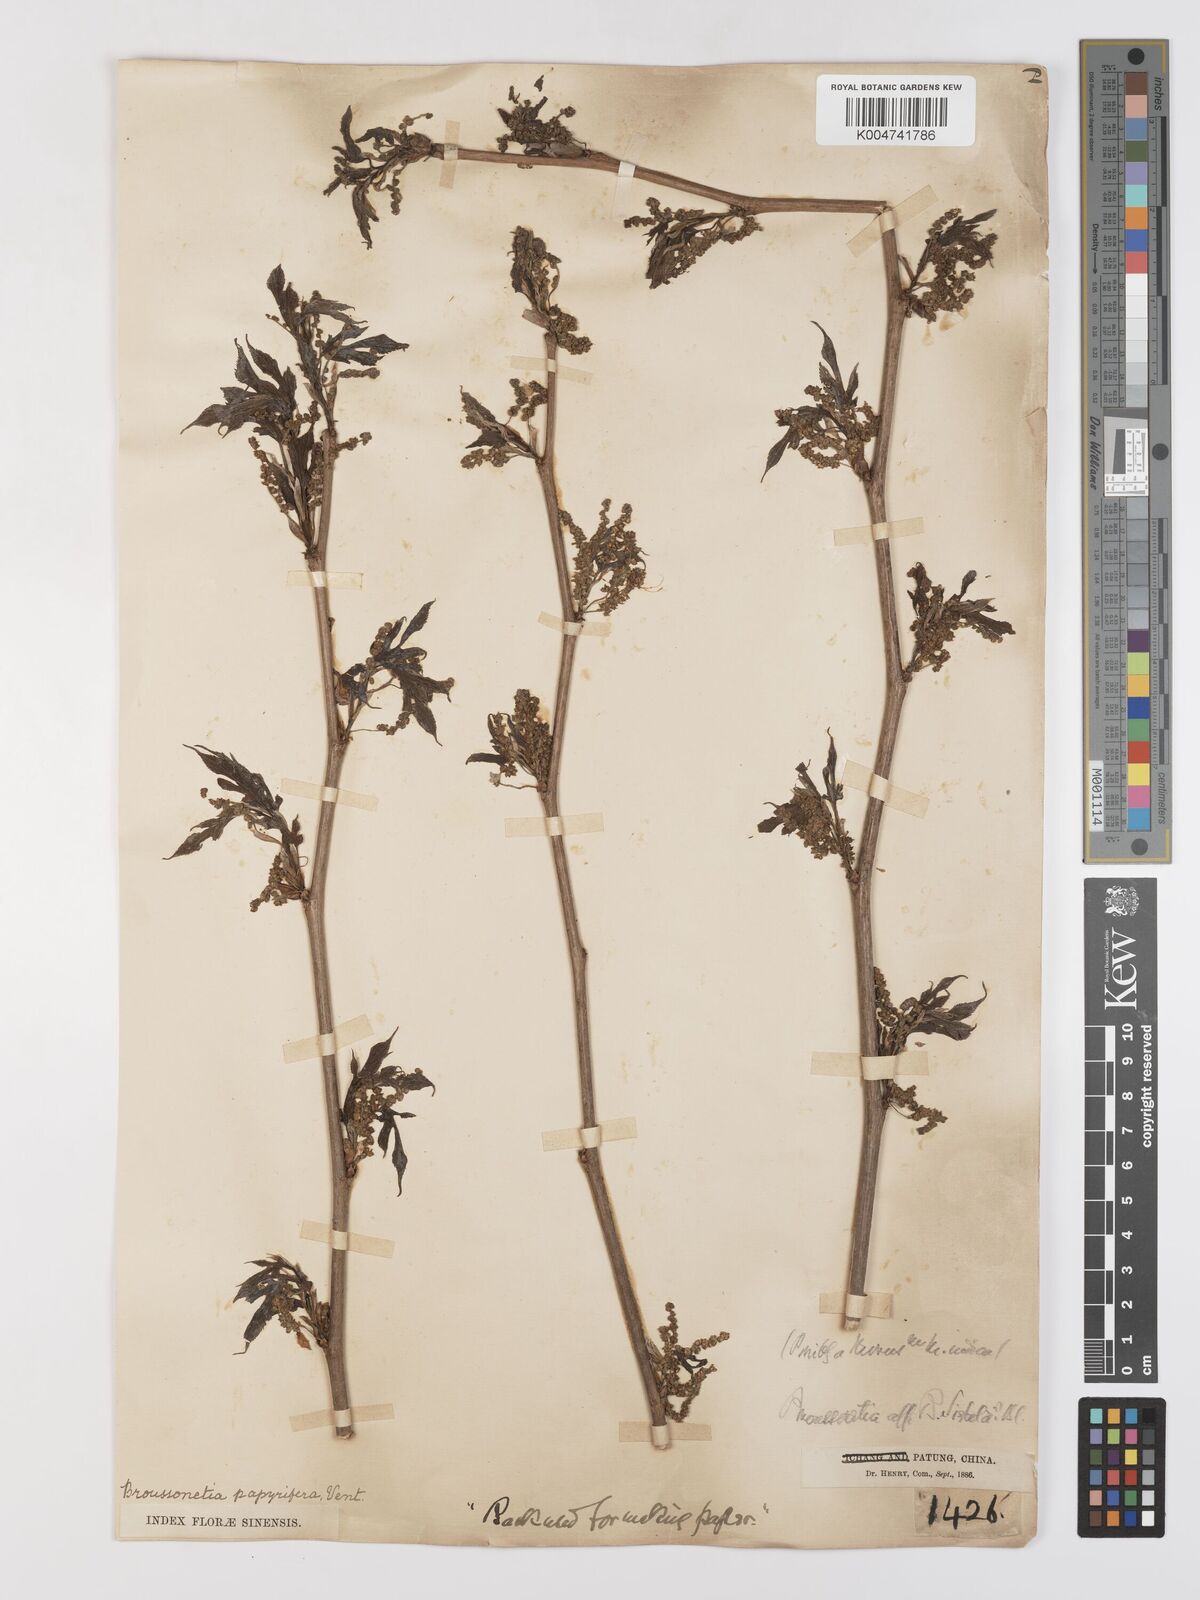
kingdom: Plantae
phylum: Tracheophyta
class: Magnoliopsida
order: Rosales
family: Moraceae
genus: Broussonetia
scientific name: Broussonetia papyrifera
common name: Paper mulberry
